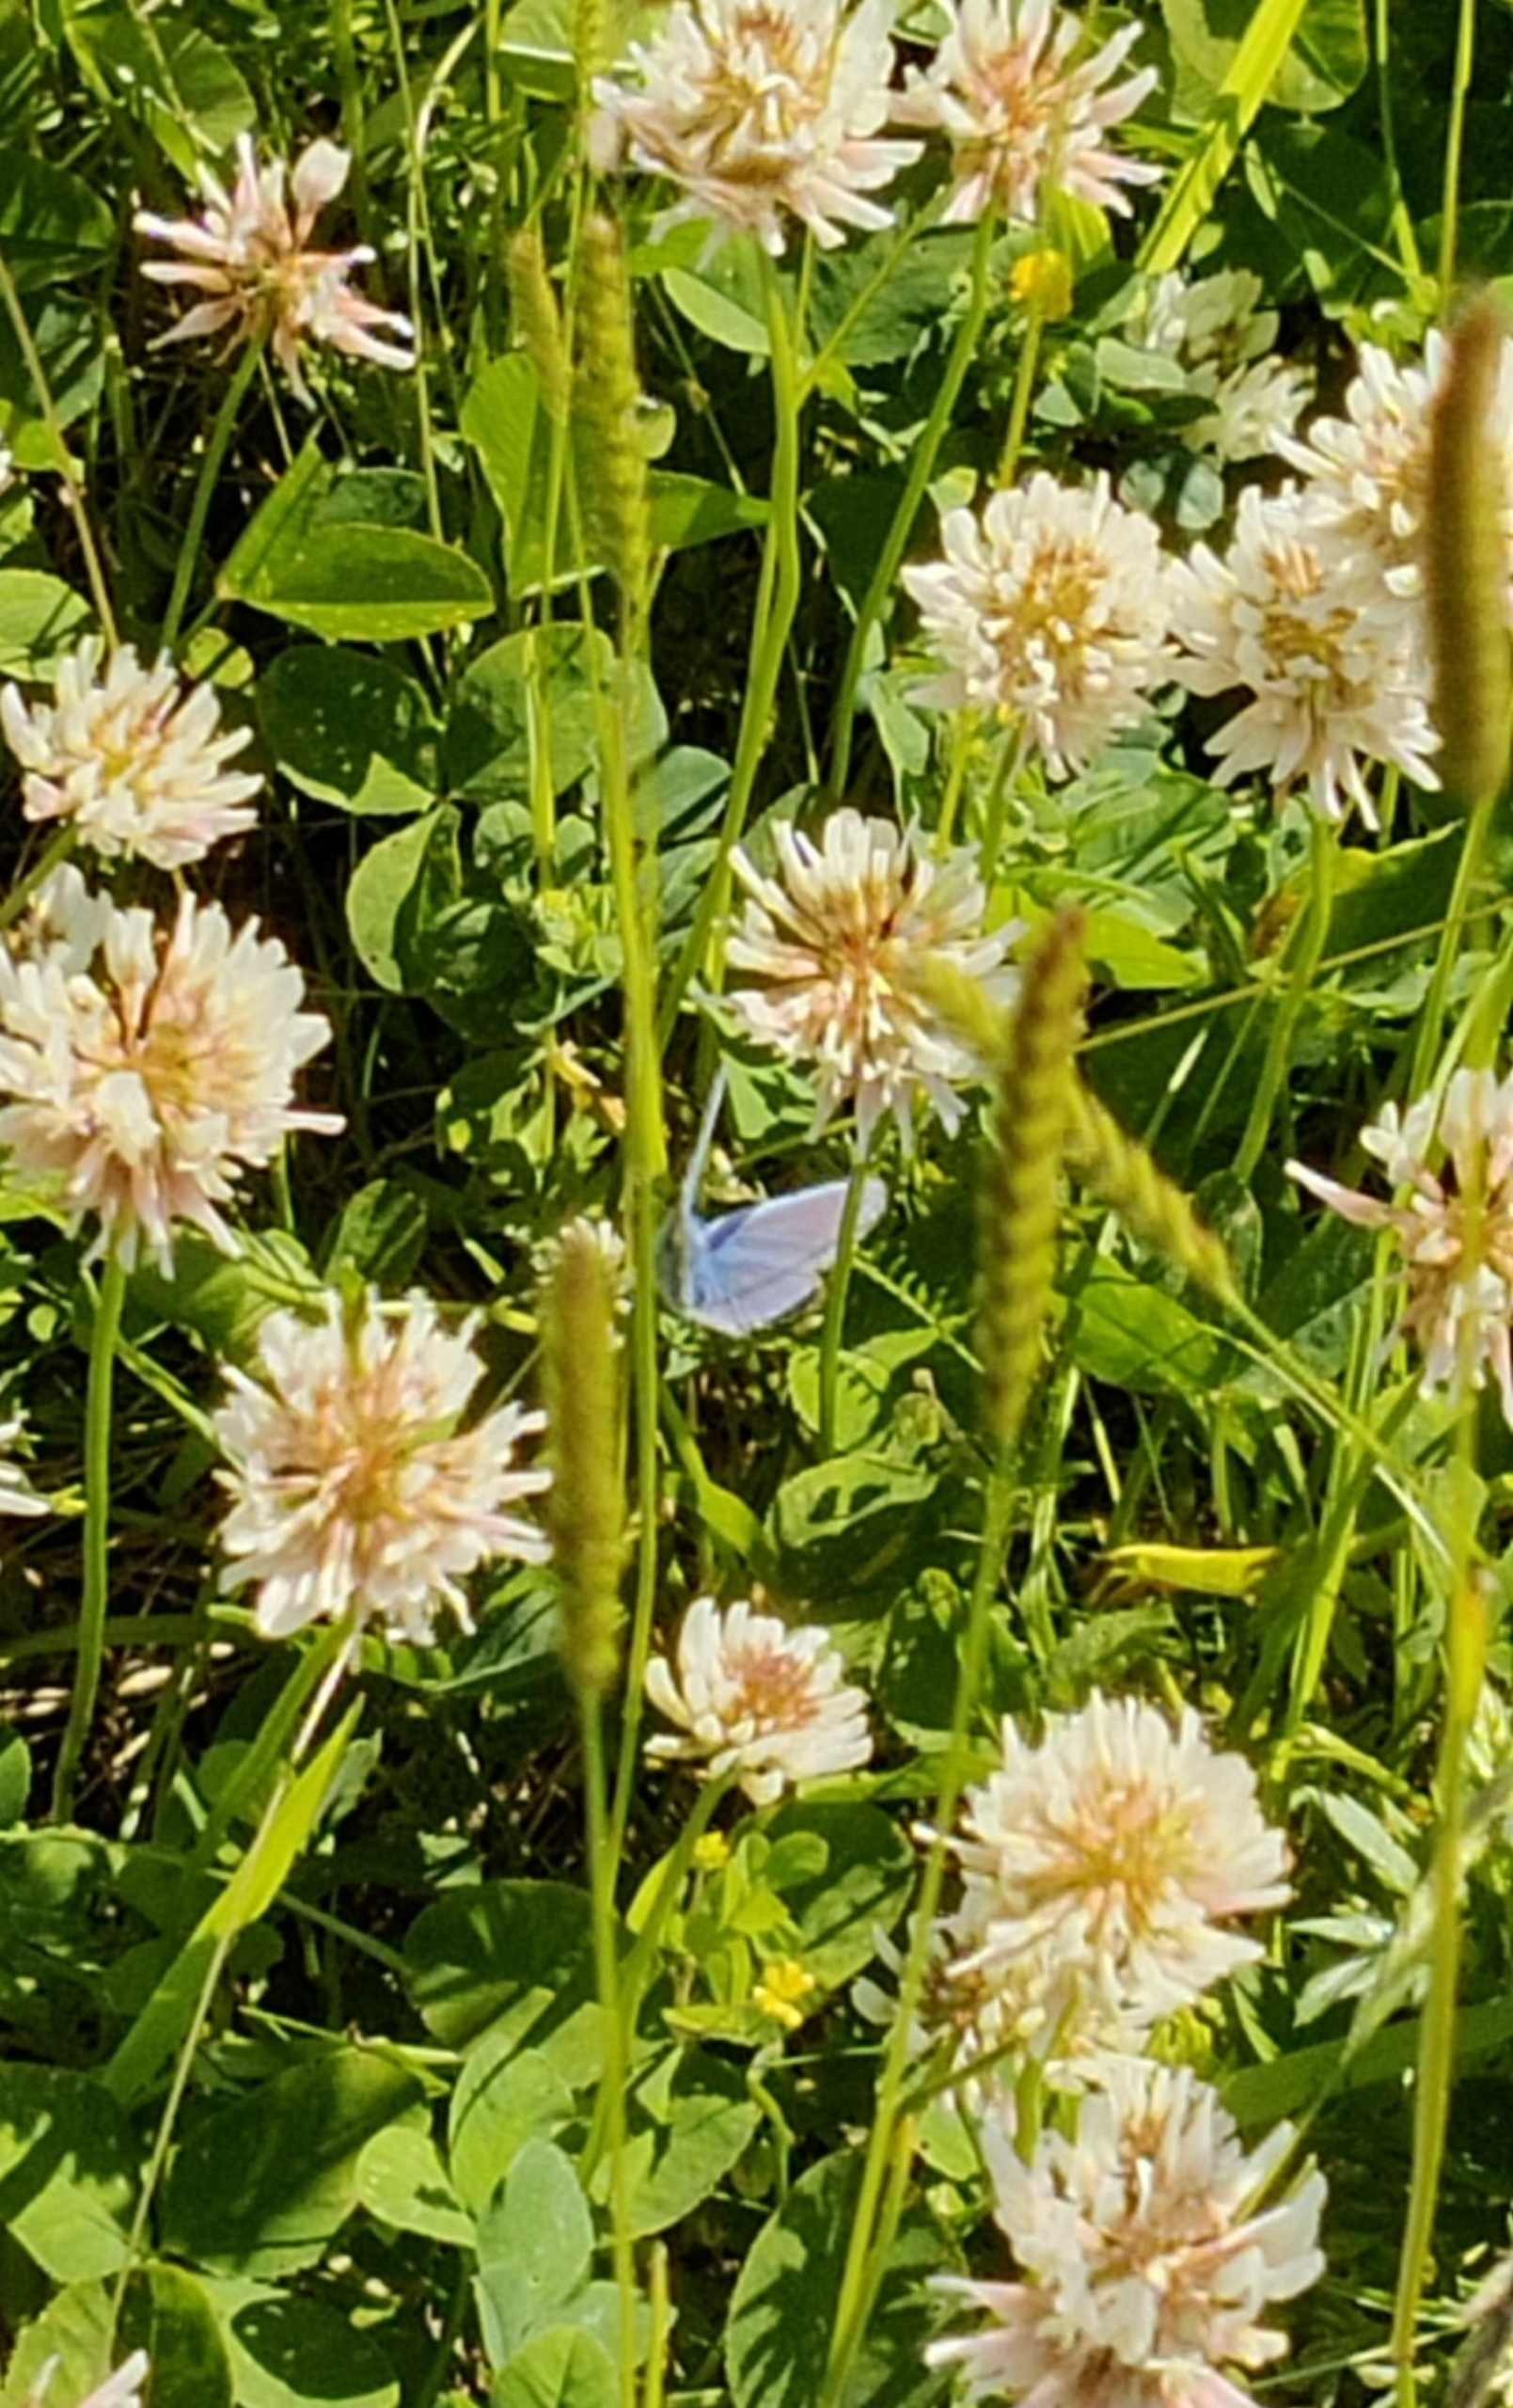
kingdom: Animalia
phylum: Arthropoda
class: Insecta
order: Lepidoptera
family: Lycaenidae
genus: Polyommatus
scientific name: Polyommatus icarus
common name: Almindelig blåfugl
